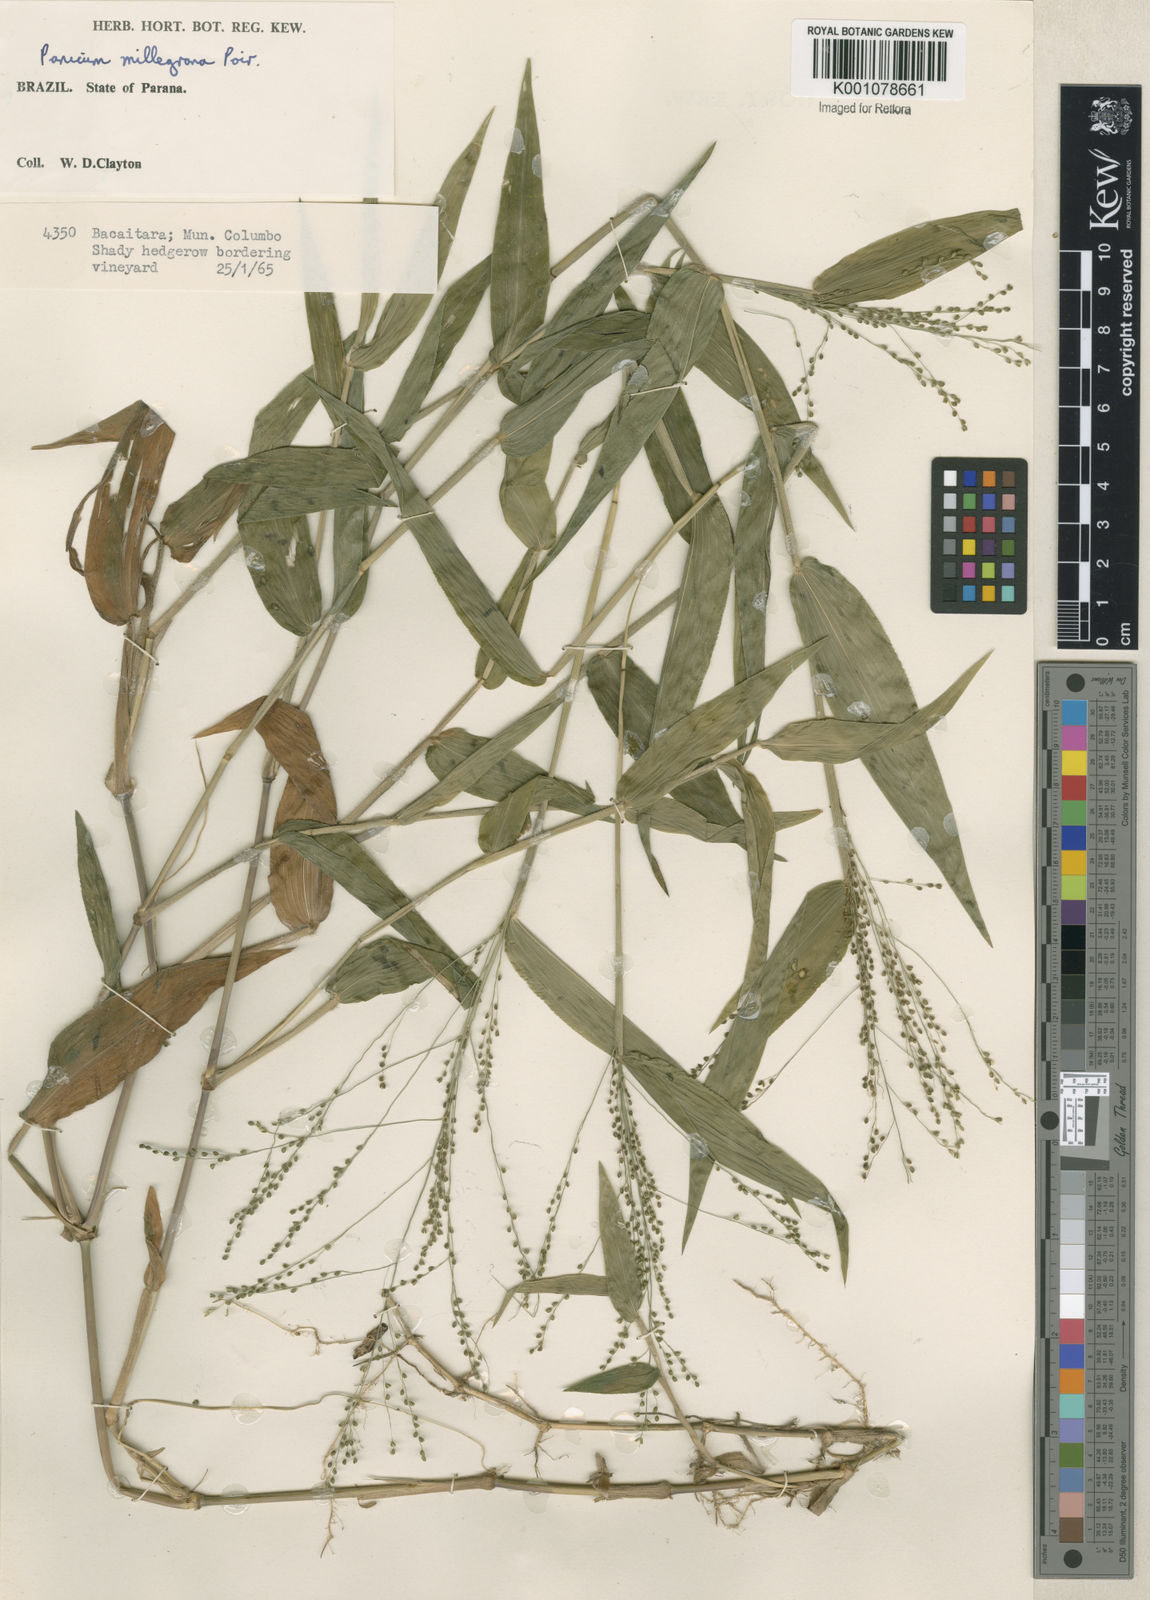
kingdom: Plantae
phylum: Tracheophyta
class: Liliopsida
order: Poales
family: Poaceae
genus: Panicum
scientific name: Panicum millegrana
